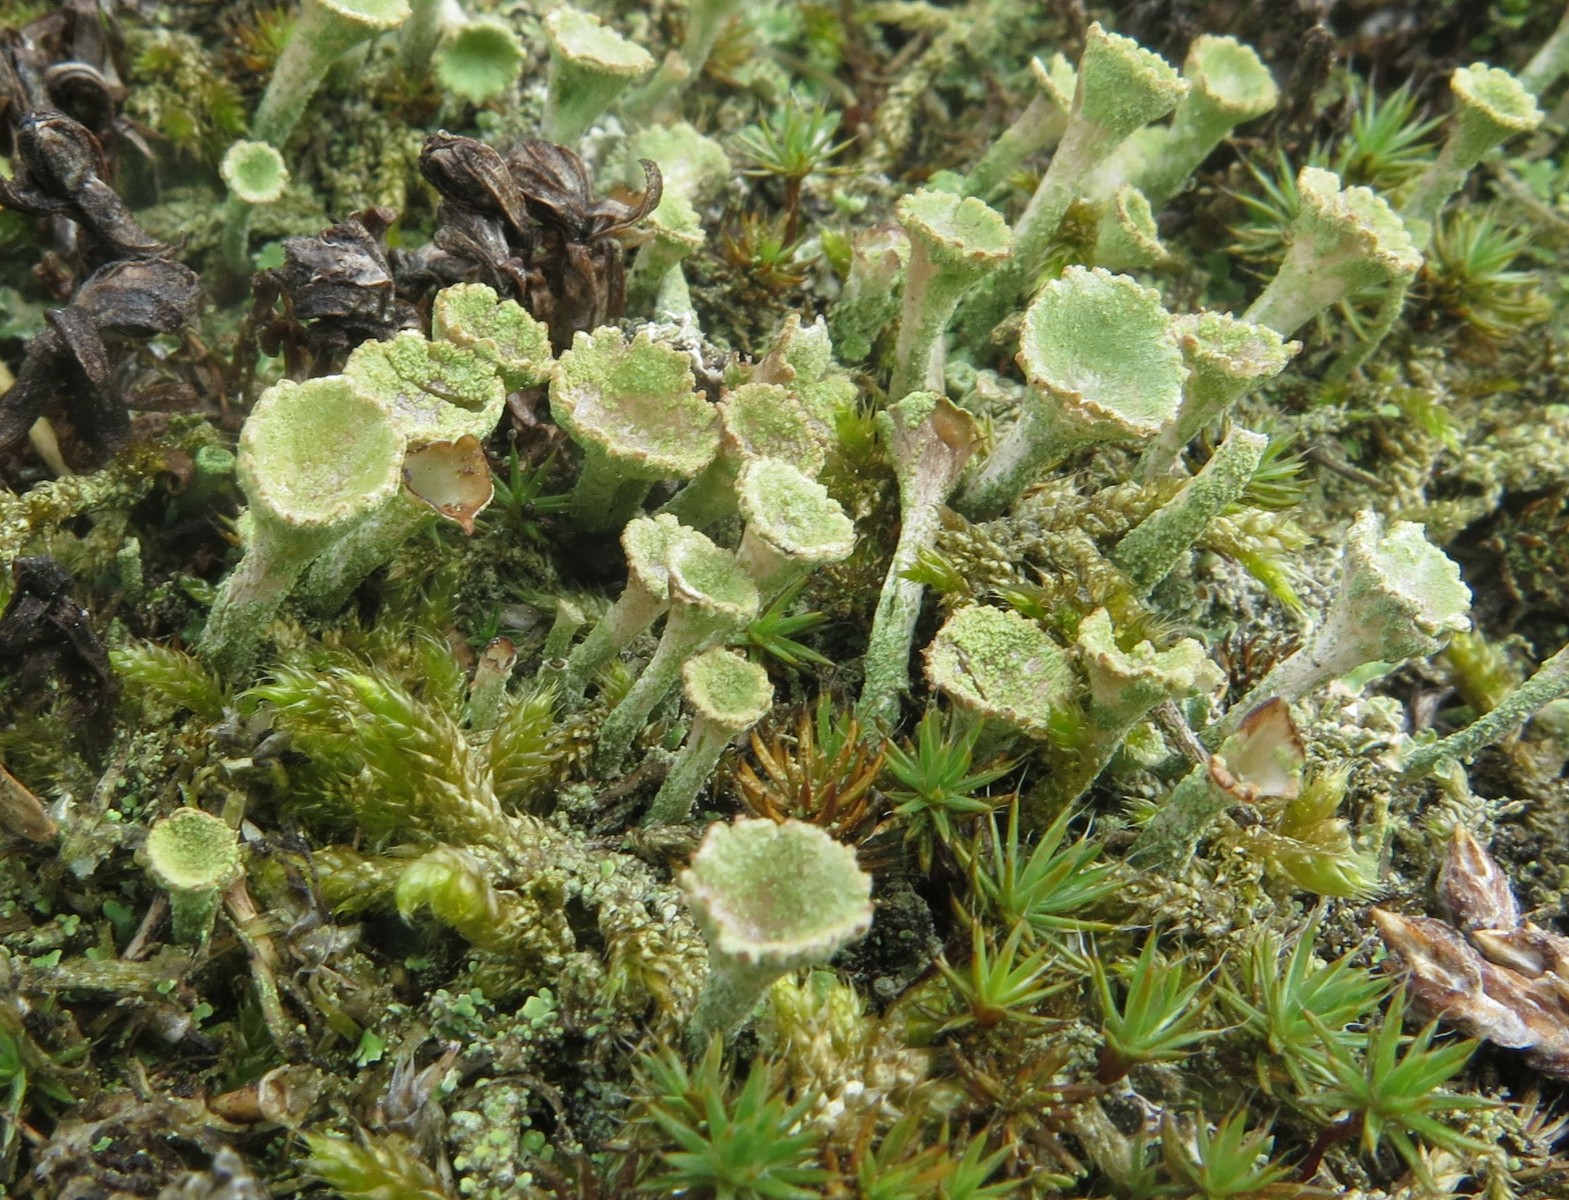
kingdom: Fungi
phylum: Ascomycota
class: Lecanoromycetes
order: Lecanorales
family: Cladoniaceae
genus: Cladonia
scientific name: Cladonia carneola
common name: gulgrøn bægerlav
